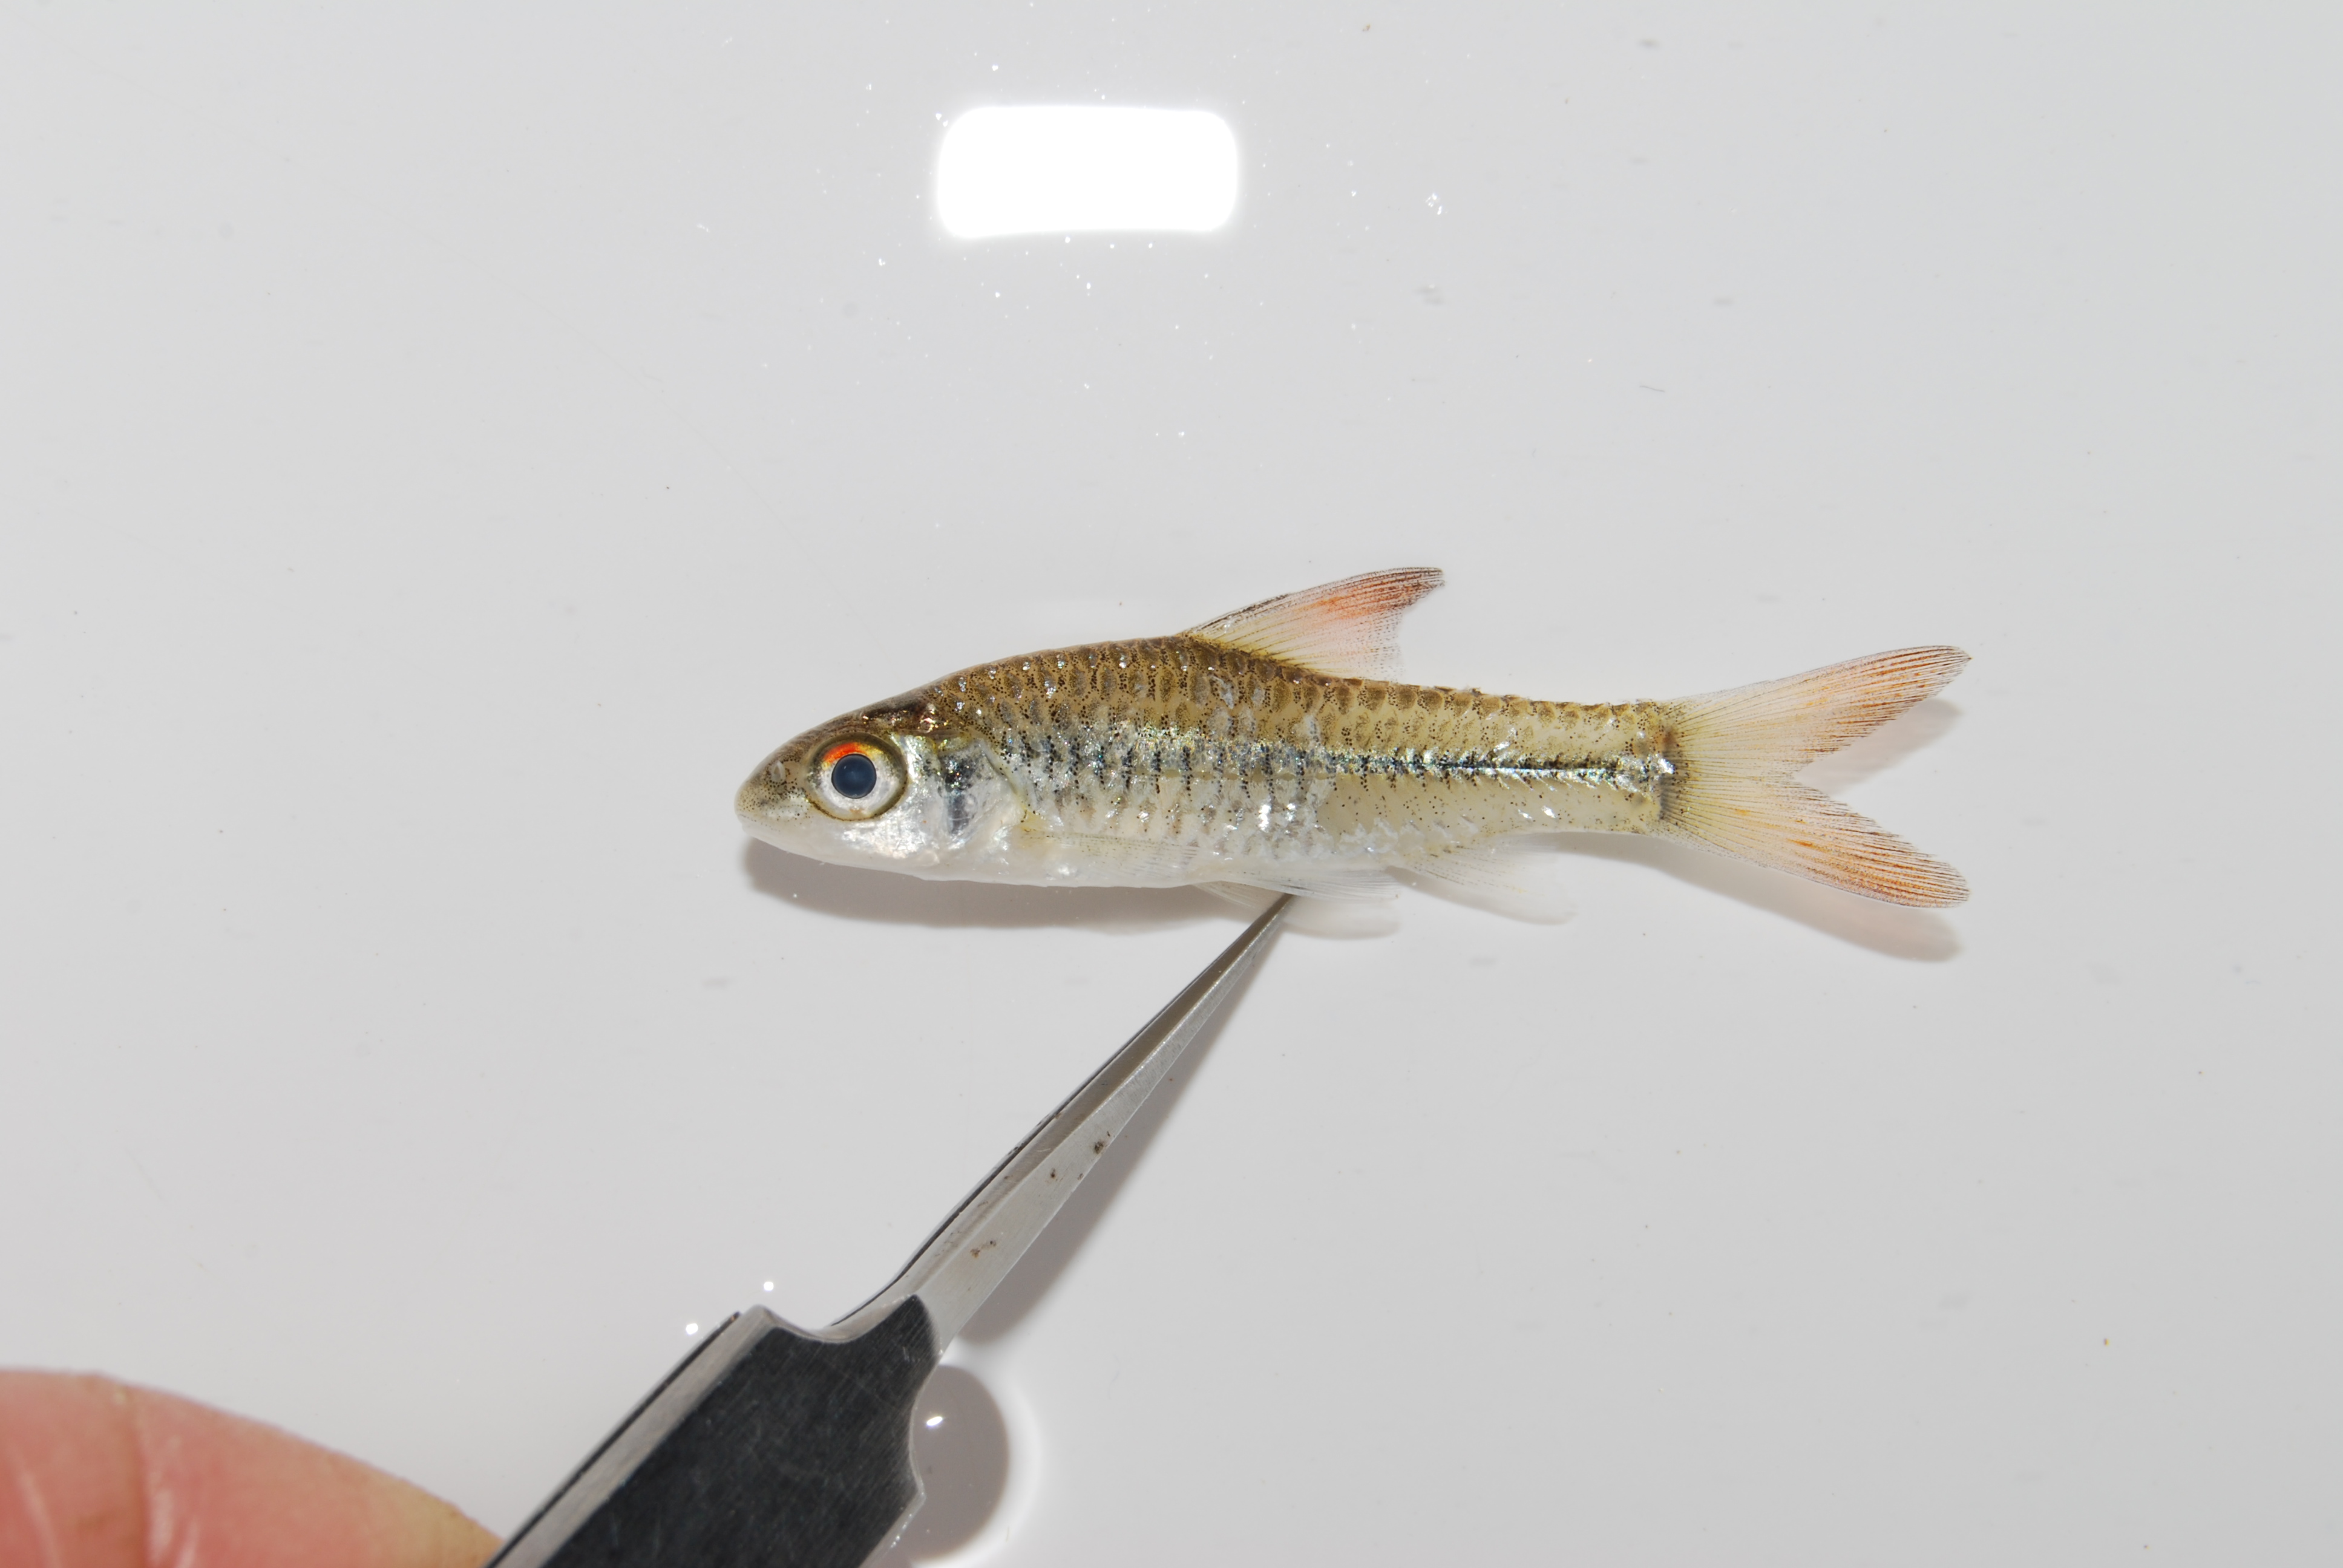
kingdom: Animalia
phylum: Chordata
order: Cypriniformes
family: Cyprinidae
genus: Enteromius
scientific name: Enteromius radiatus
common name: Beira barb
